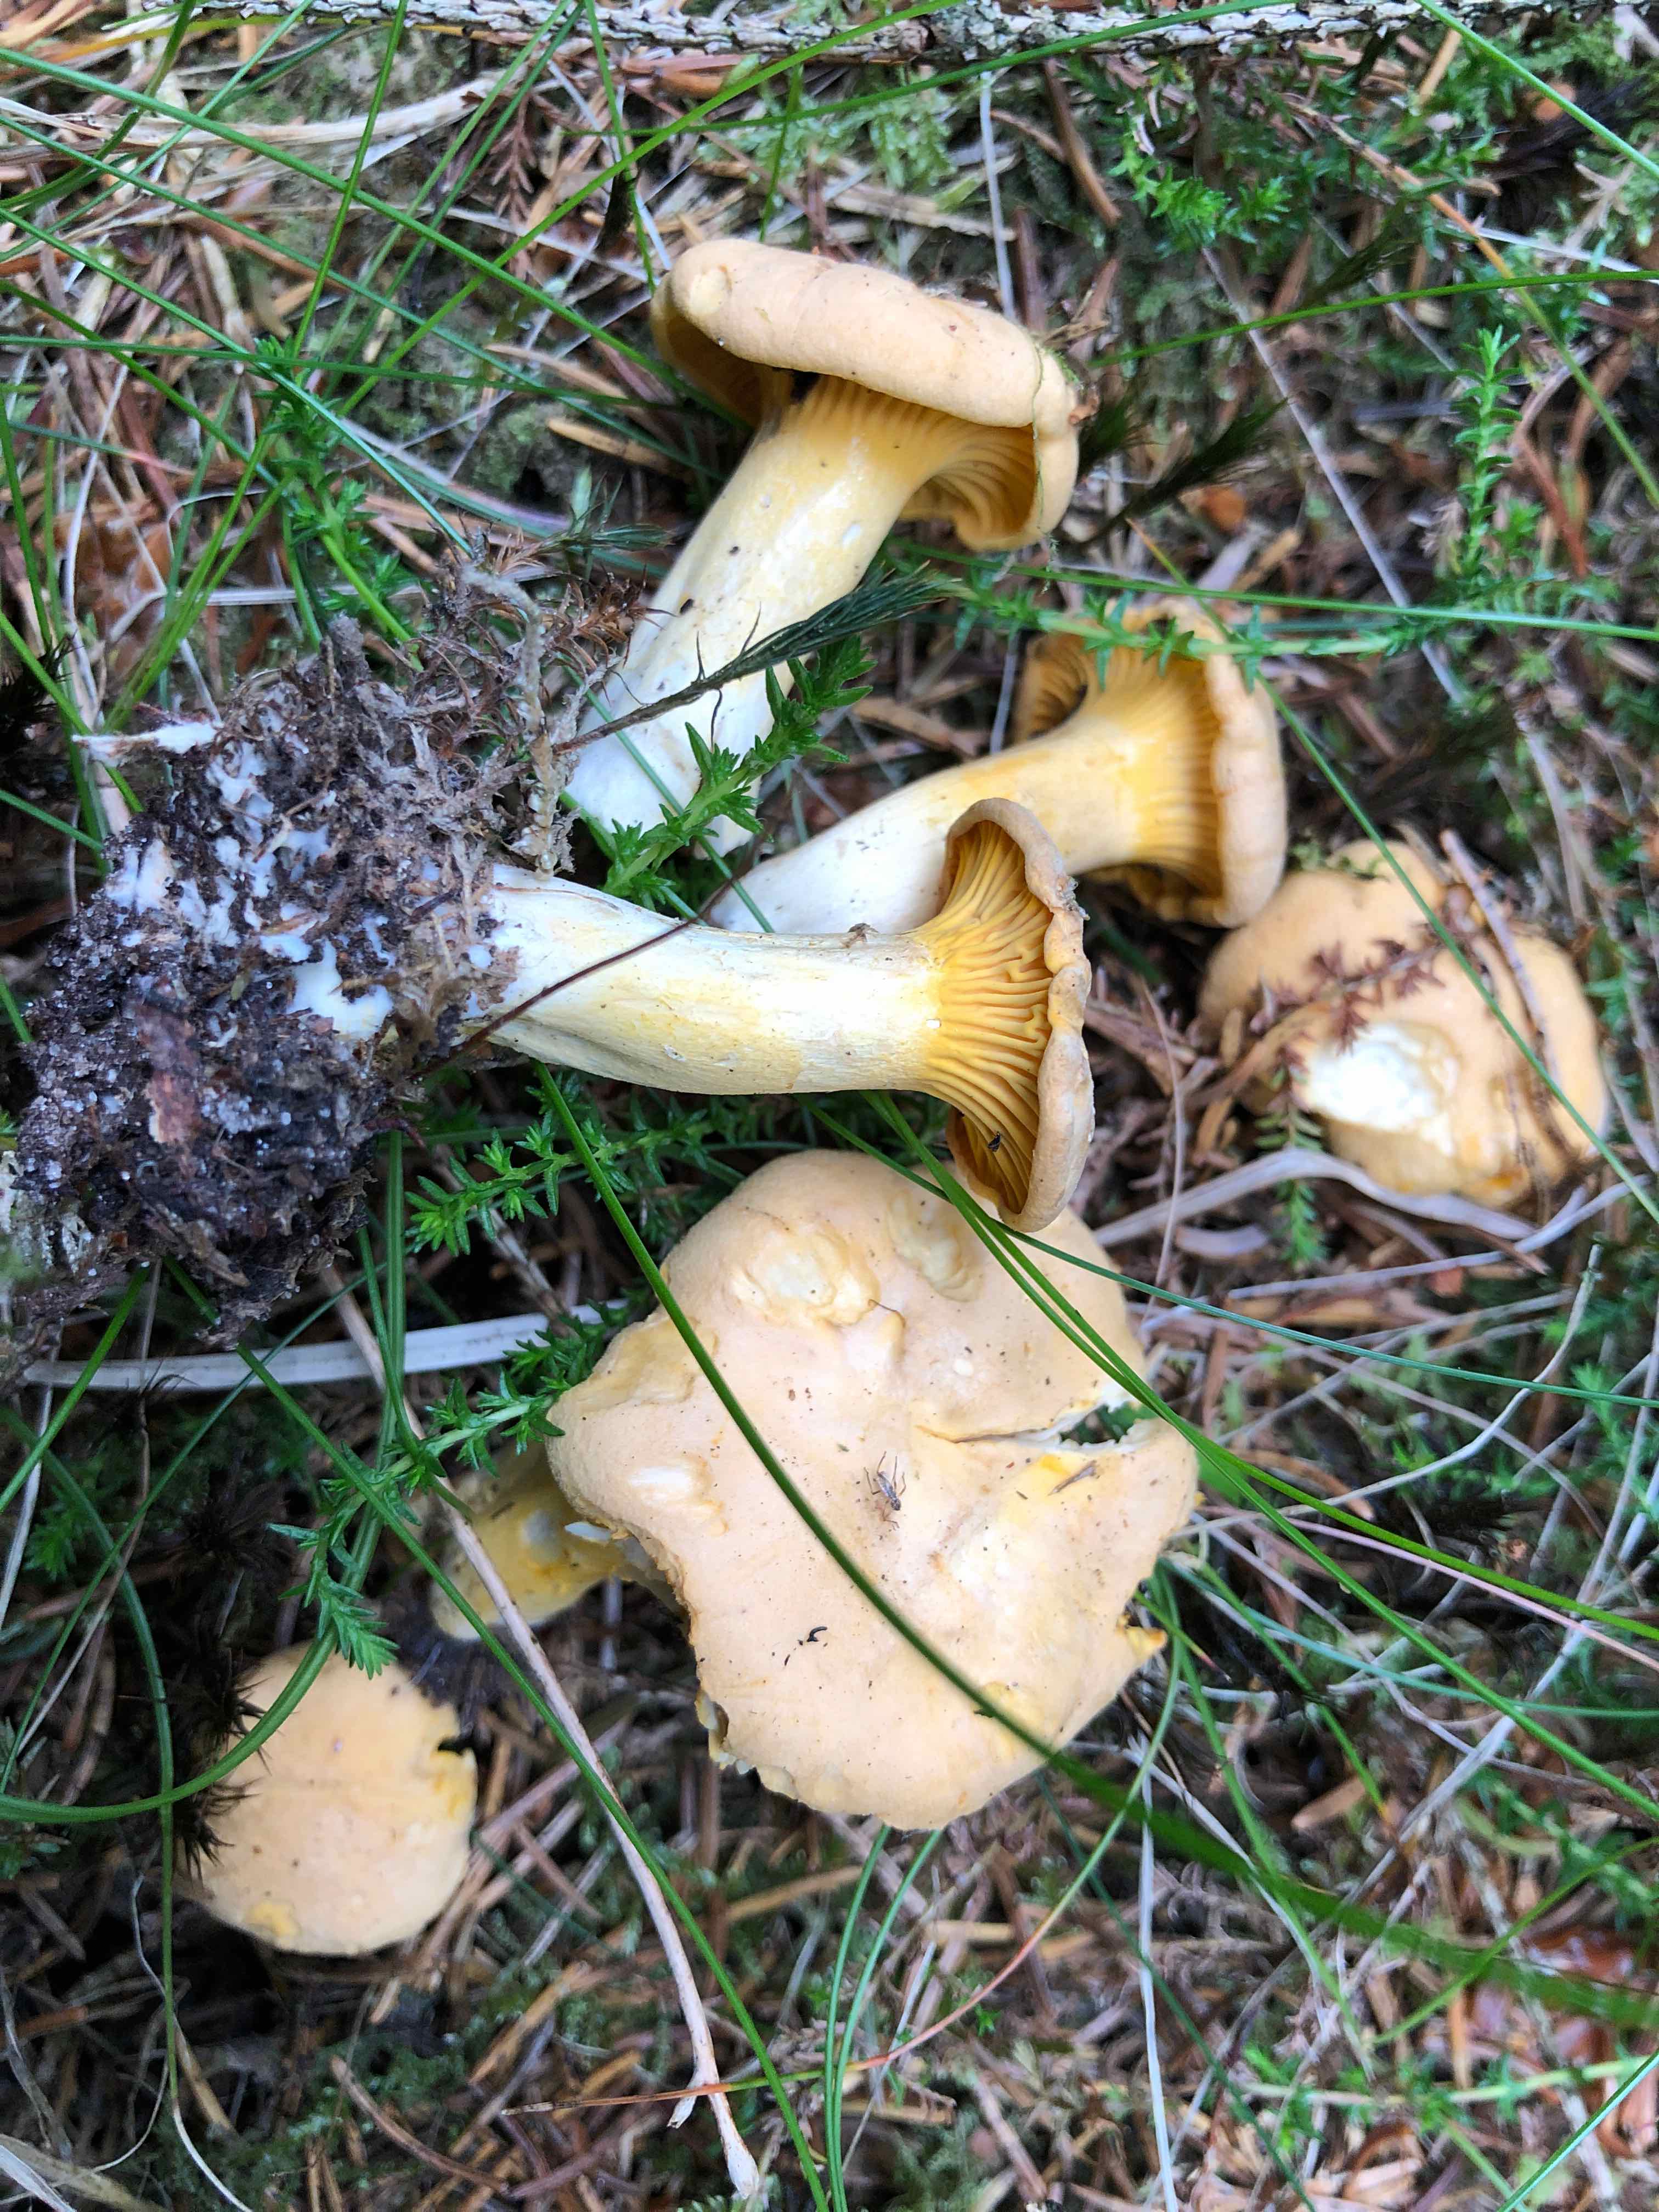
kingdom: Fungi
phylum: Basidiomycota
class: Agaricomycetes
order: Cantharellales
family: Hydnaceae
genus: Cantharellus
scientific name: Cantharellus
